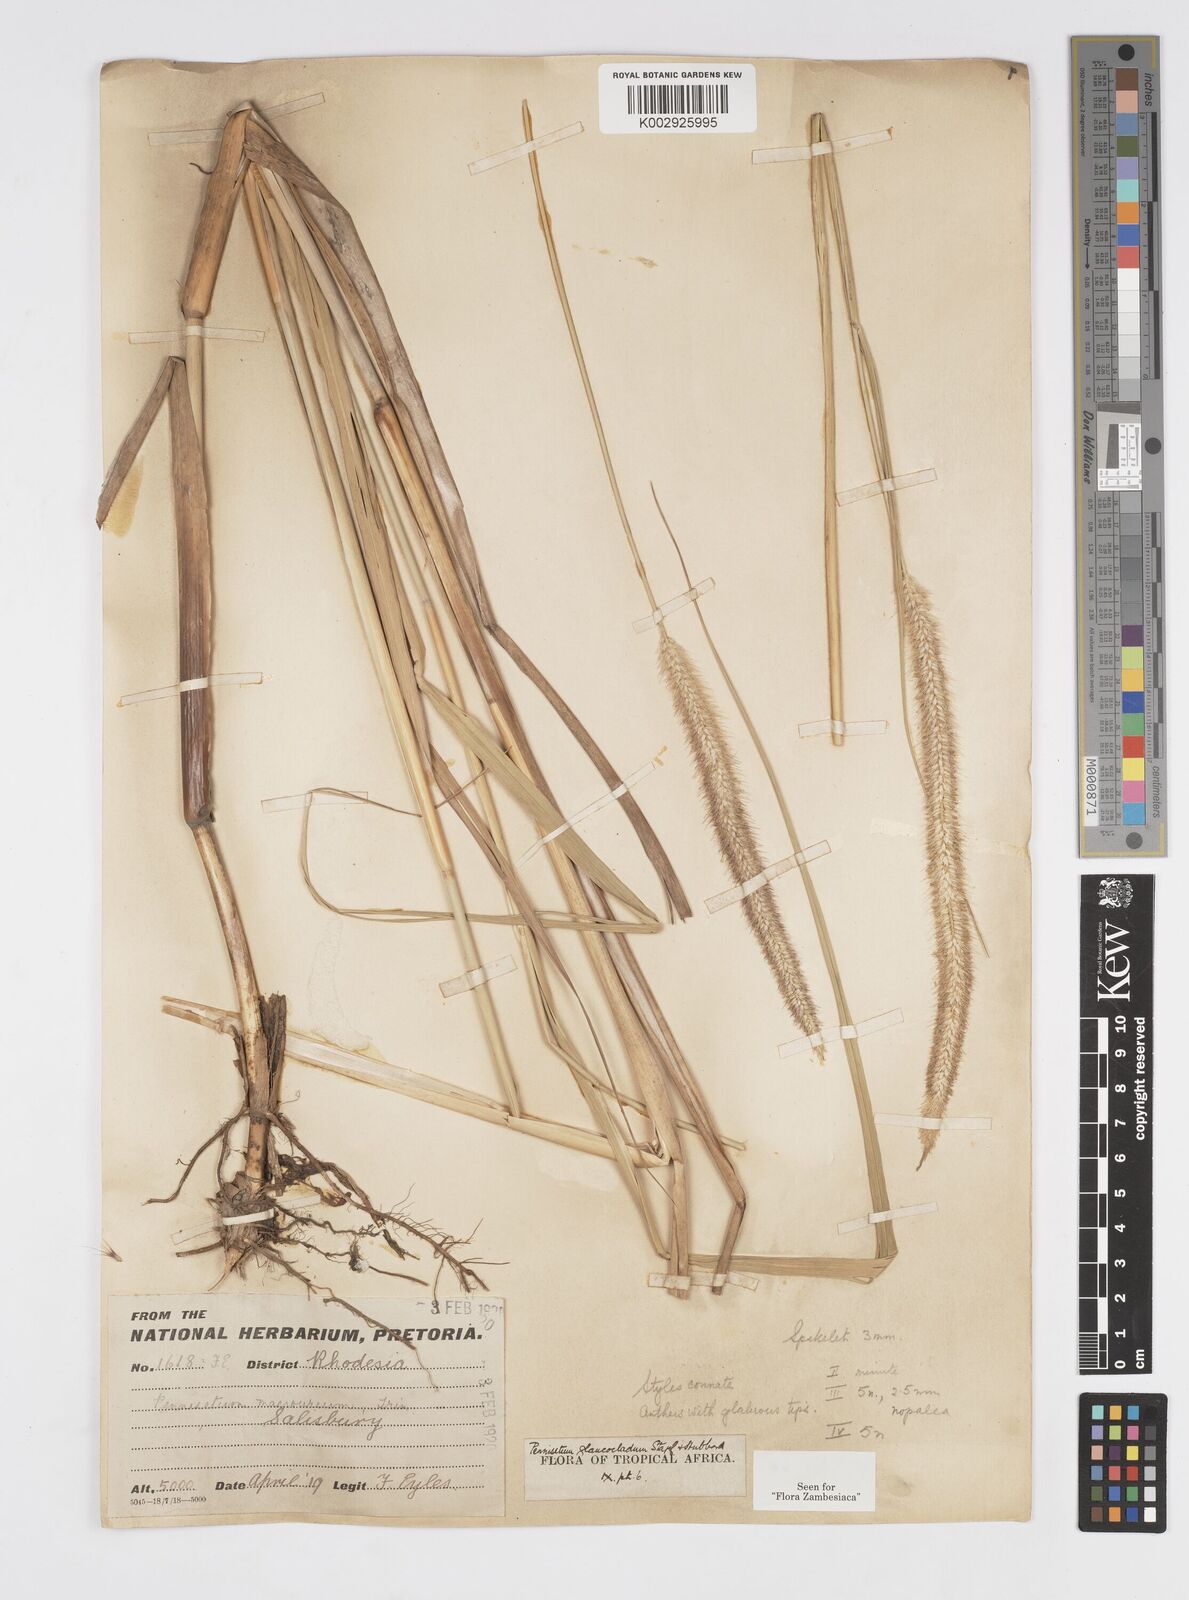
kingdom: Plantae
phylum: Tracheophyta
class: Liliopsida
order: Poales
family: Poaceae
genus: Cenchrus
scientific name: Cenchrus caudatus
